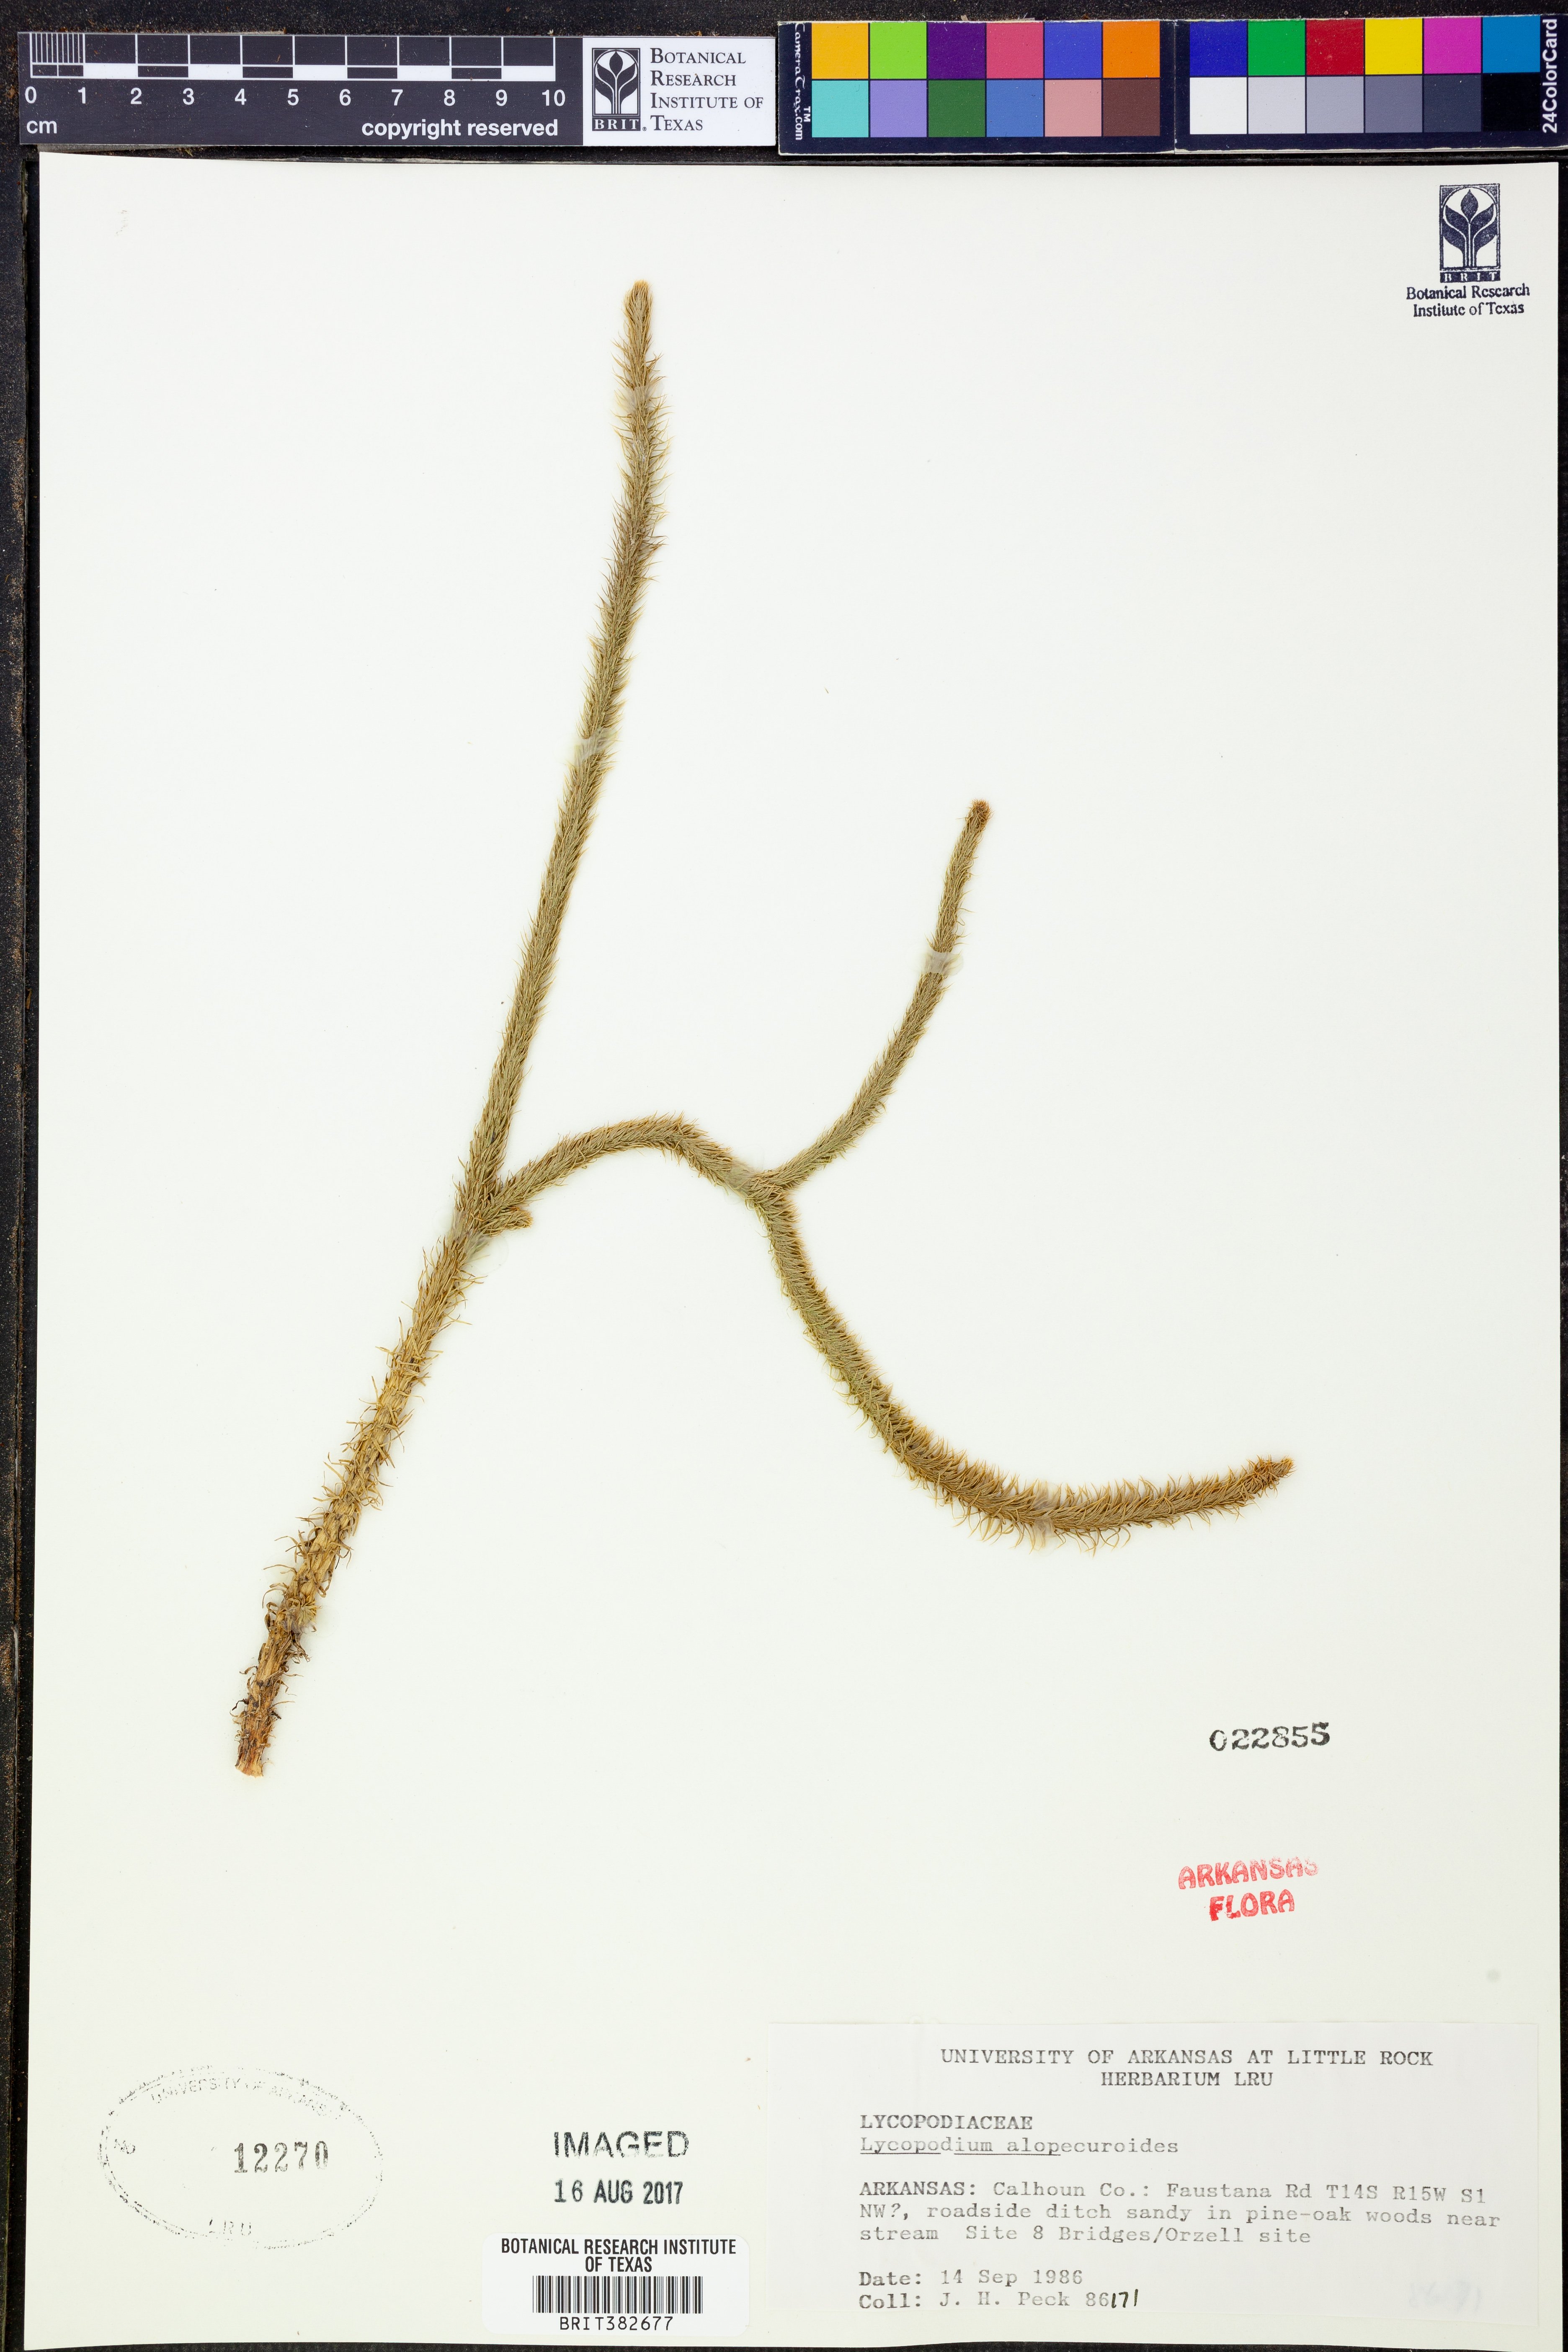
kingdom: Plantae
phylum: Tracheophyta
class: Lycopodiopsida
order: Lycopodiales
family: Lycopodiaceae
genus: Lycopodiella
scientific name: Lycopodiella alopecuroides
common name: Foxtail clubmoss
